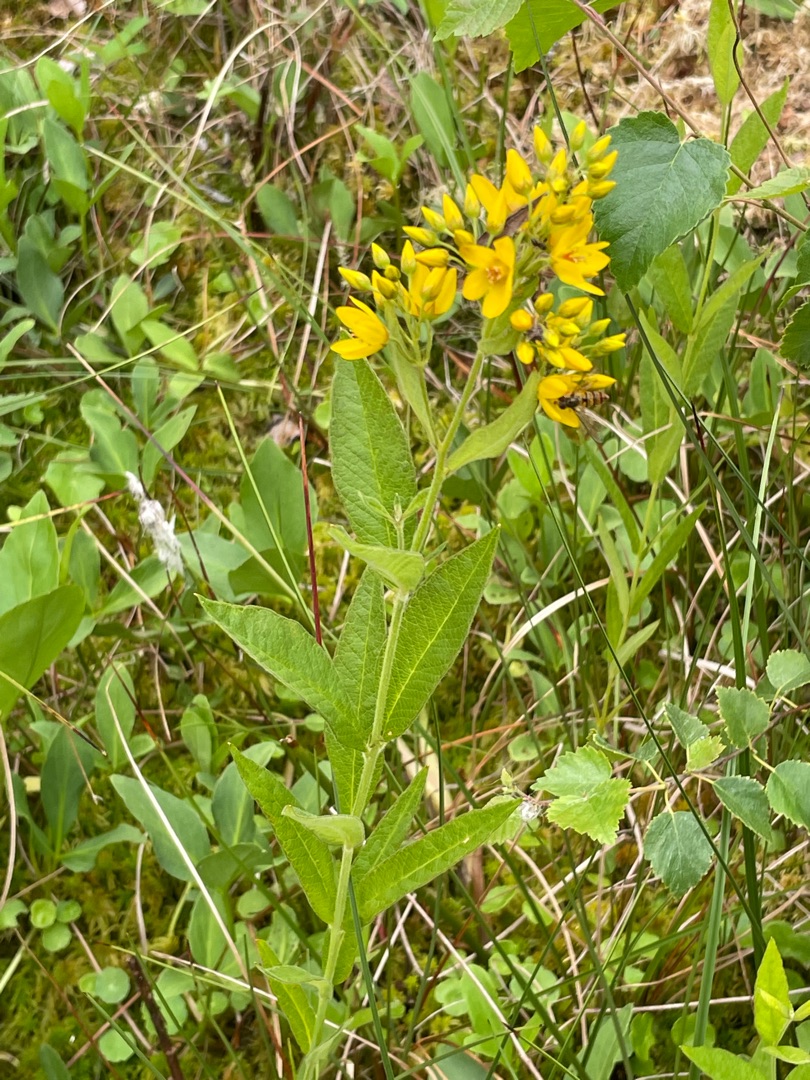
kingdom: Plantae
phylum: Tracheophyta
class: Magnoliopsida
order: Ericales
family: Primulaceae
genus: Lysimachia
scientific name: Lysimachia vulgaris
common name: Almindelig fredløs
